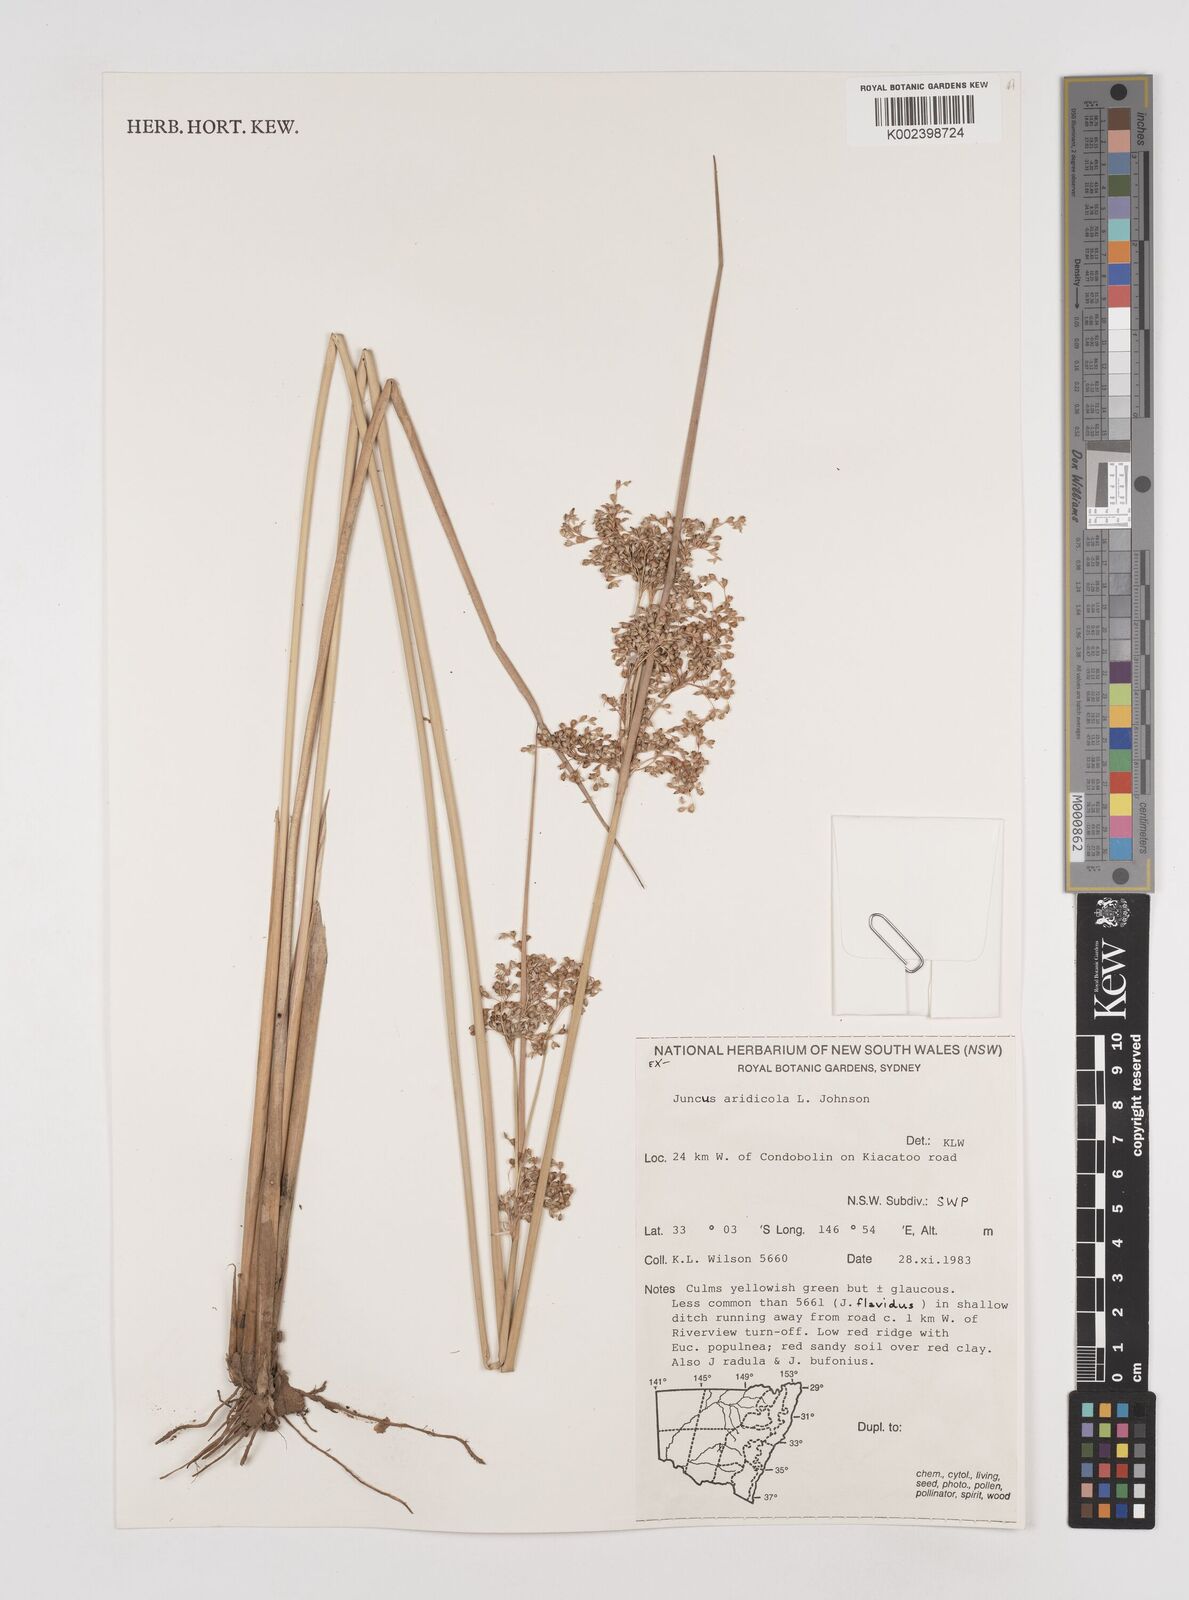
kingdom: Plantae
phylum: Tracheophyta
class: Liliopsida
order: Poales
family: Juncaceae
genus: Juncus
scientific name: Juncus aridicola
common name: Tussock rush
